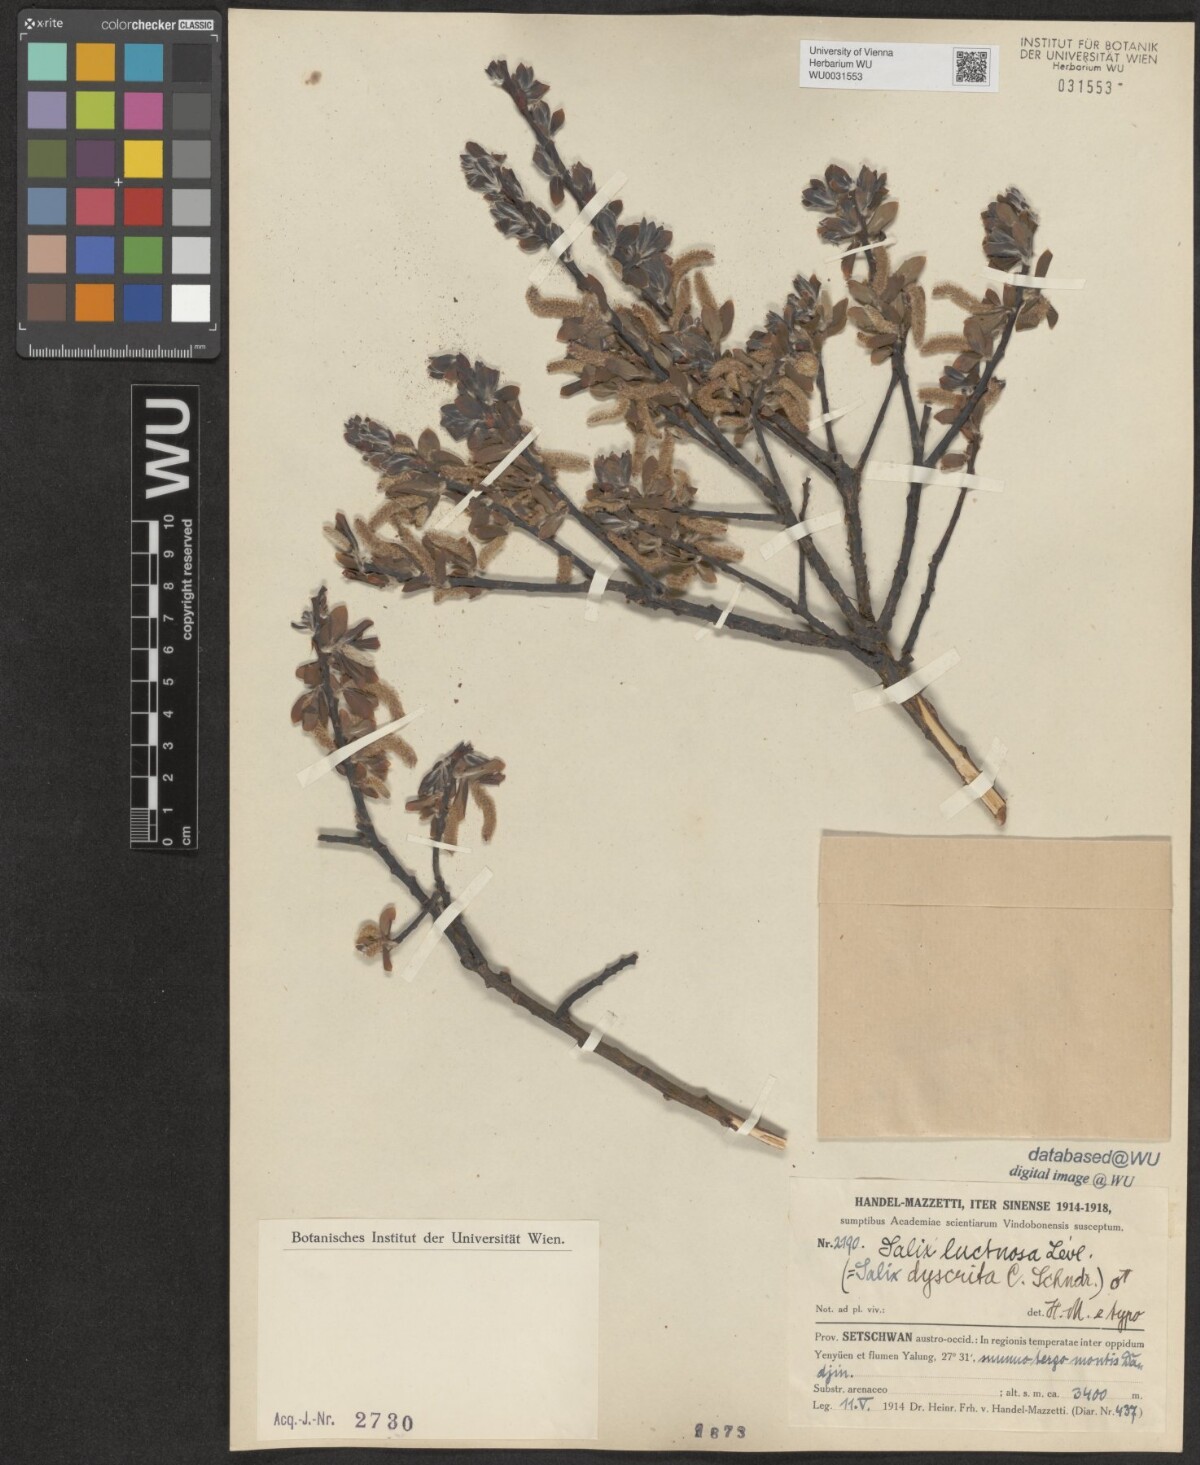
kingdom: Plantae
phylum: Tracheophyta
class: Magnoliopsida
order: Malpighiales
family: Salicaceae
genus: Salix
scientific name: Salix luctuosa
